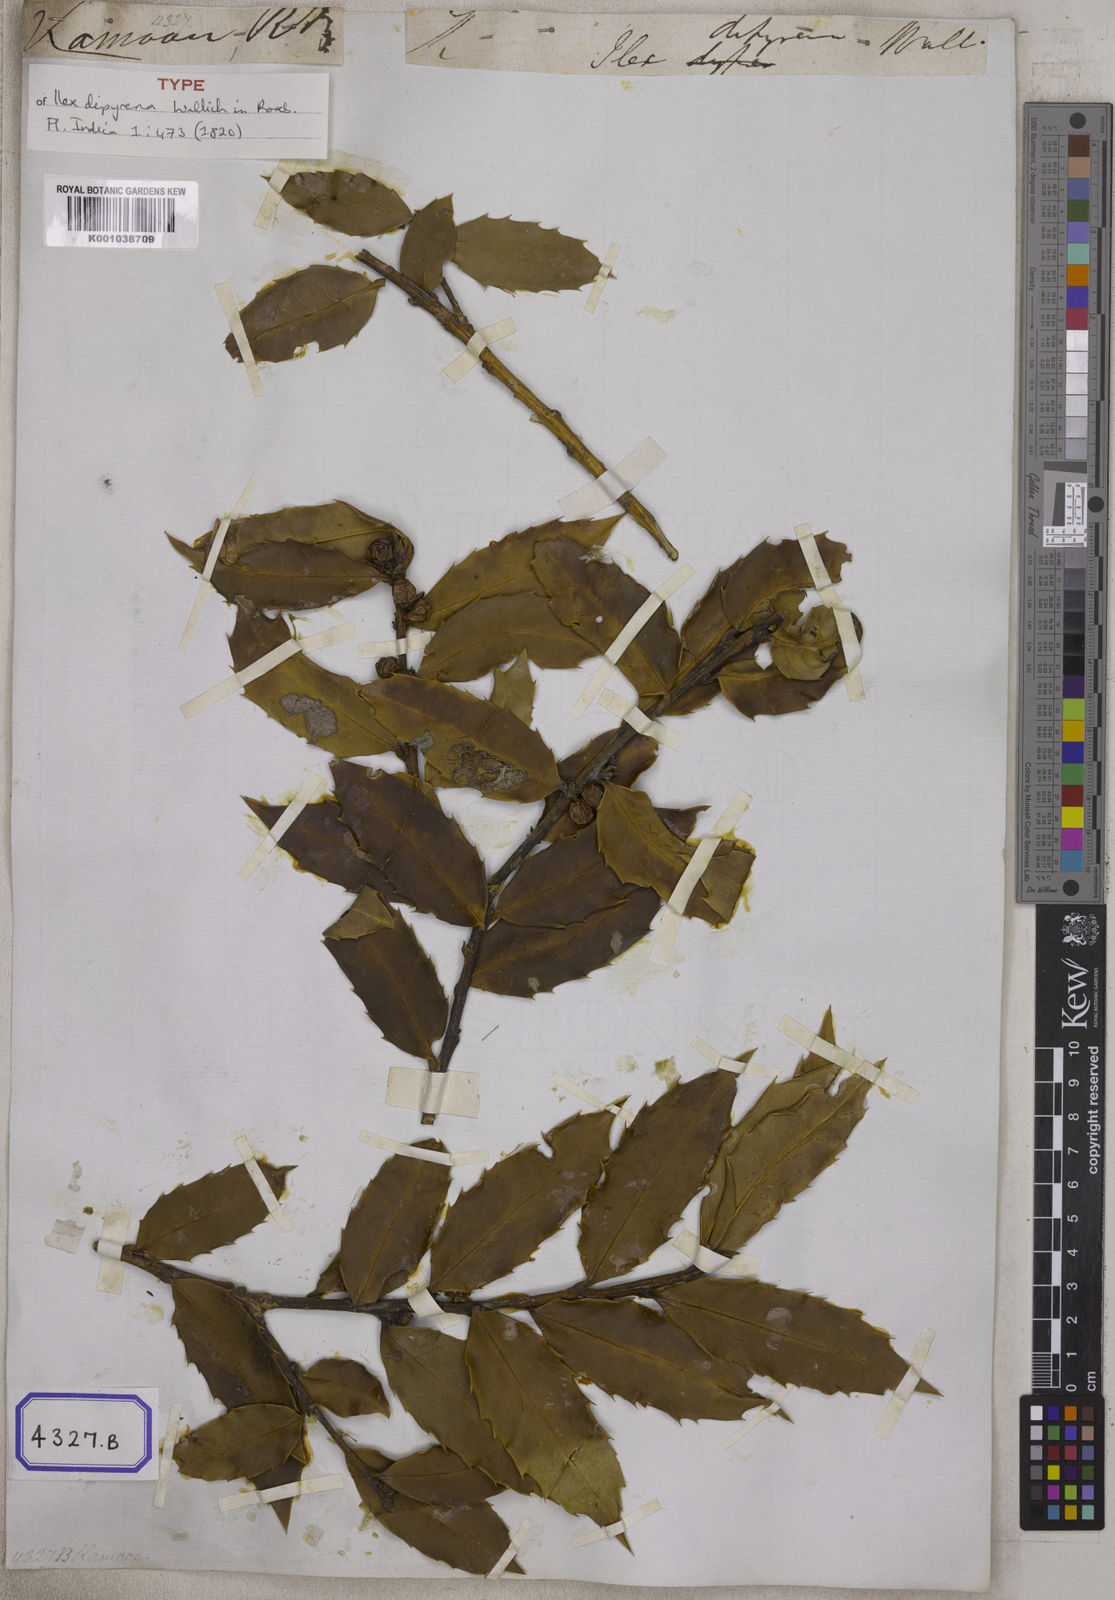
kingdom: Plantae
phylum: Tracheophyta
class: Magnoliopsida
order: Aquifoliales
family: Aquifoliaceae
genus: Ilex
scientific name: Ilex dipyrena
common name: Himalayan holly
